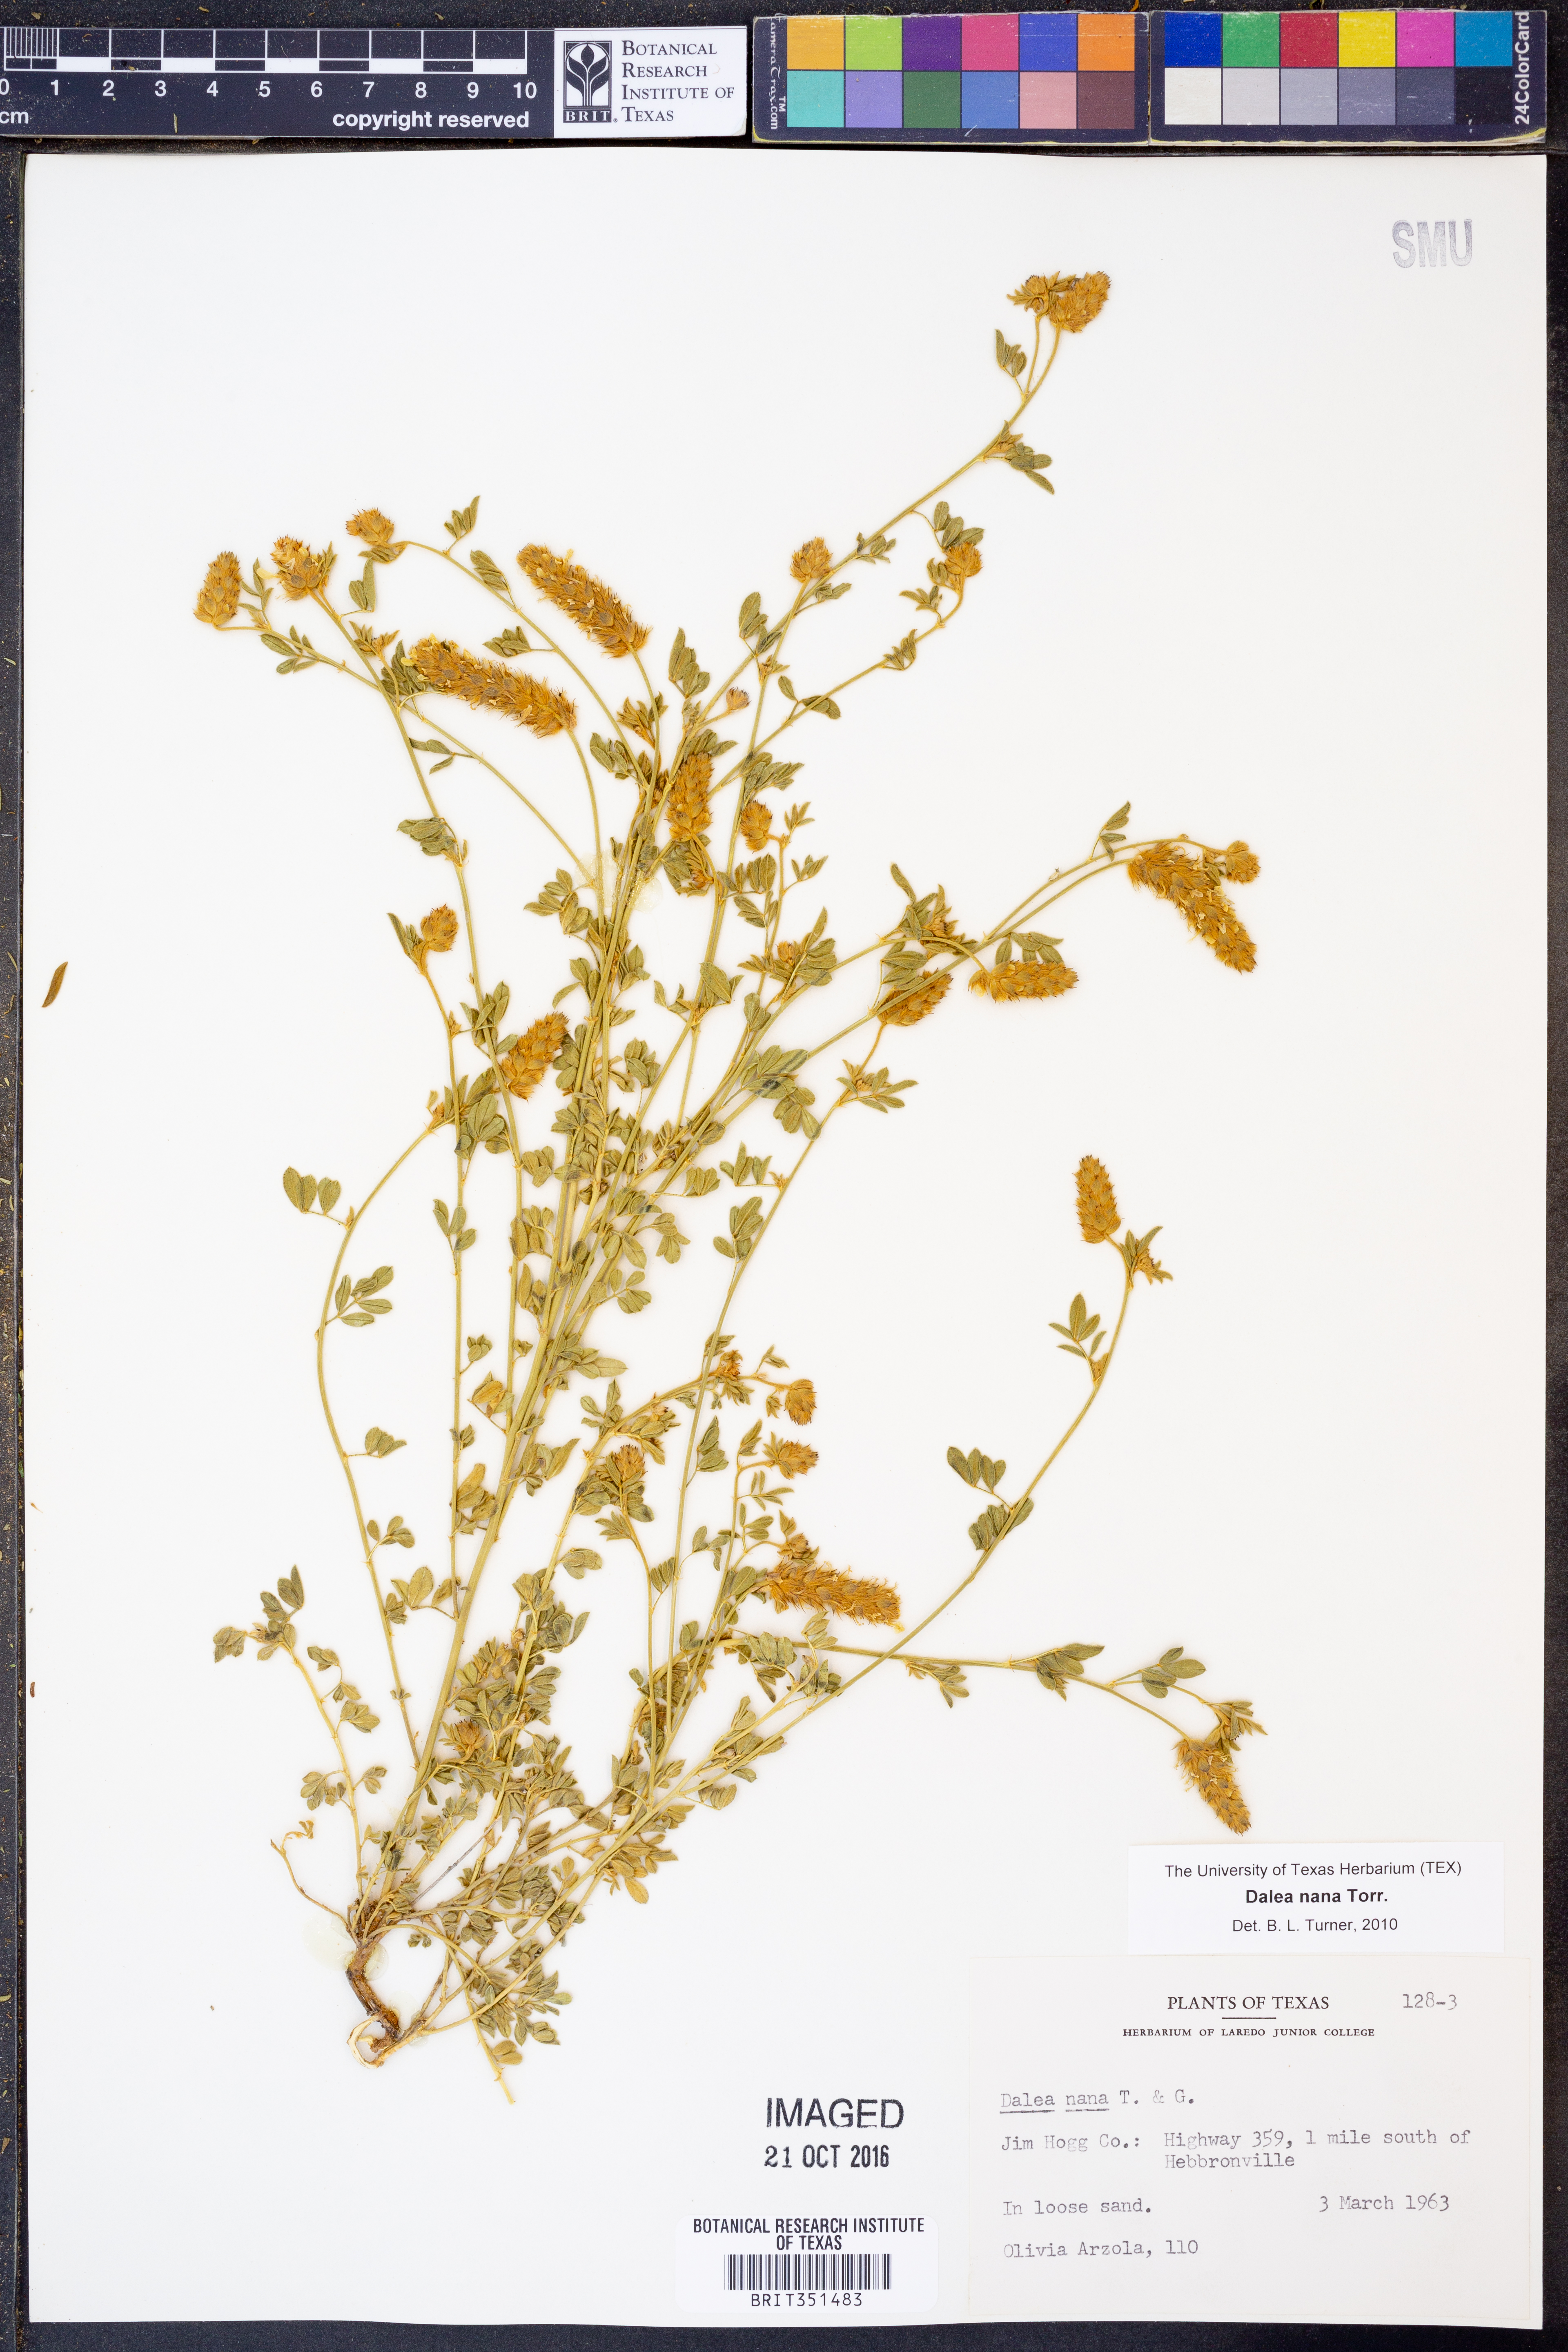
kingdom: Plantae
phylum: Tracheophyta
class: Magnoliopsida
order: Fabales
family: Fabaceae
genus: Dalea
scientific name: Dalea nana
